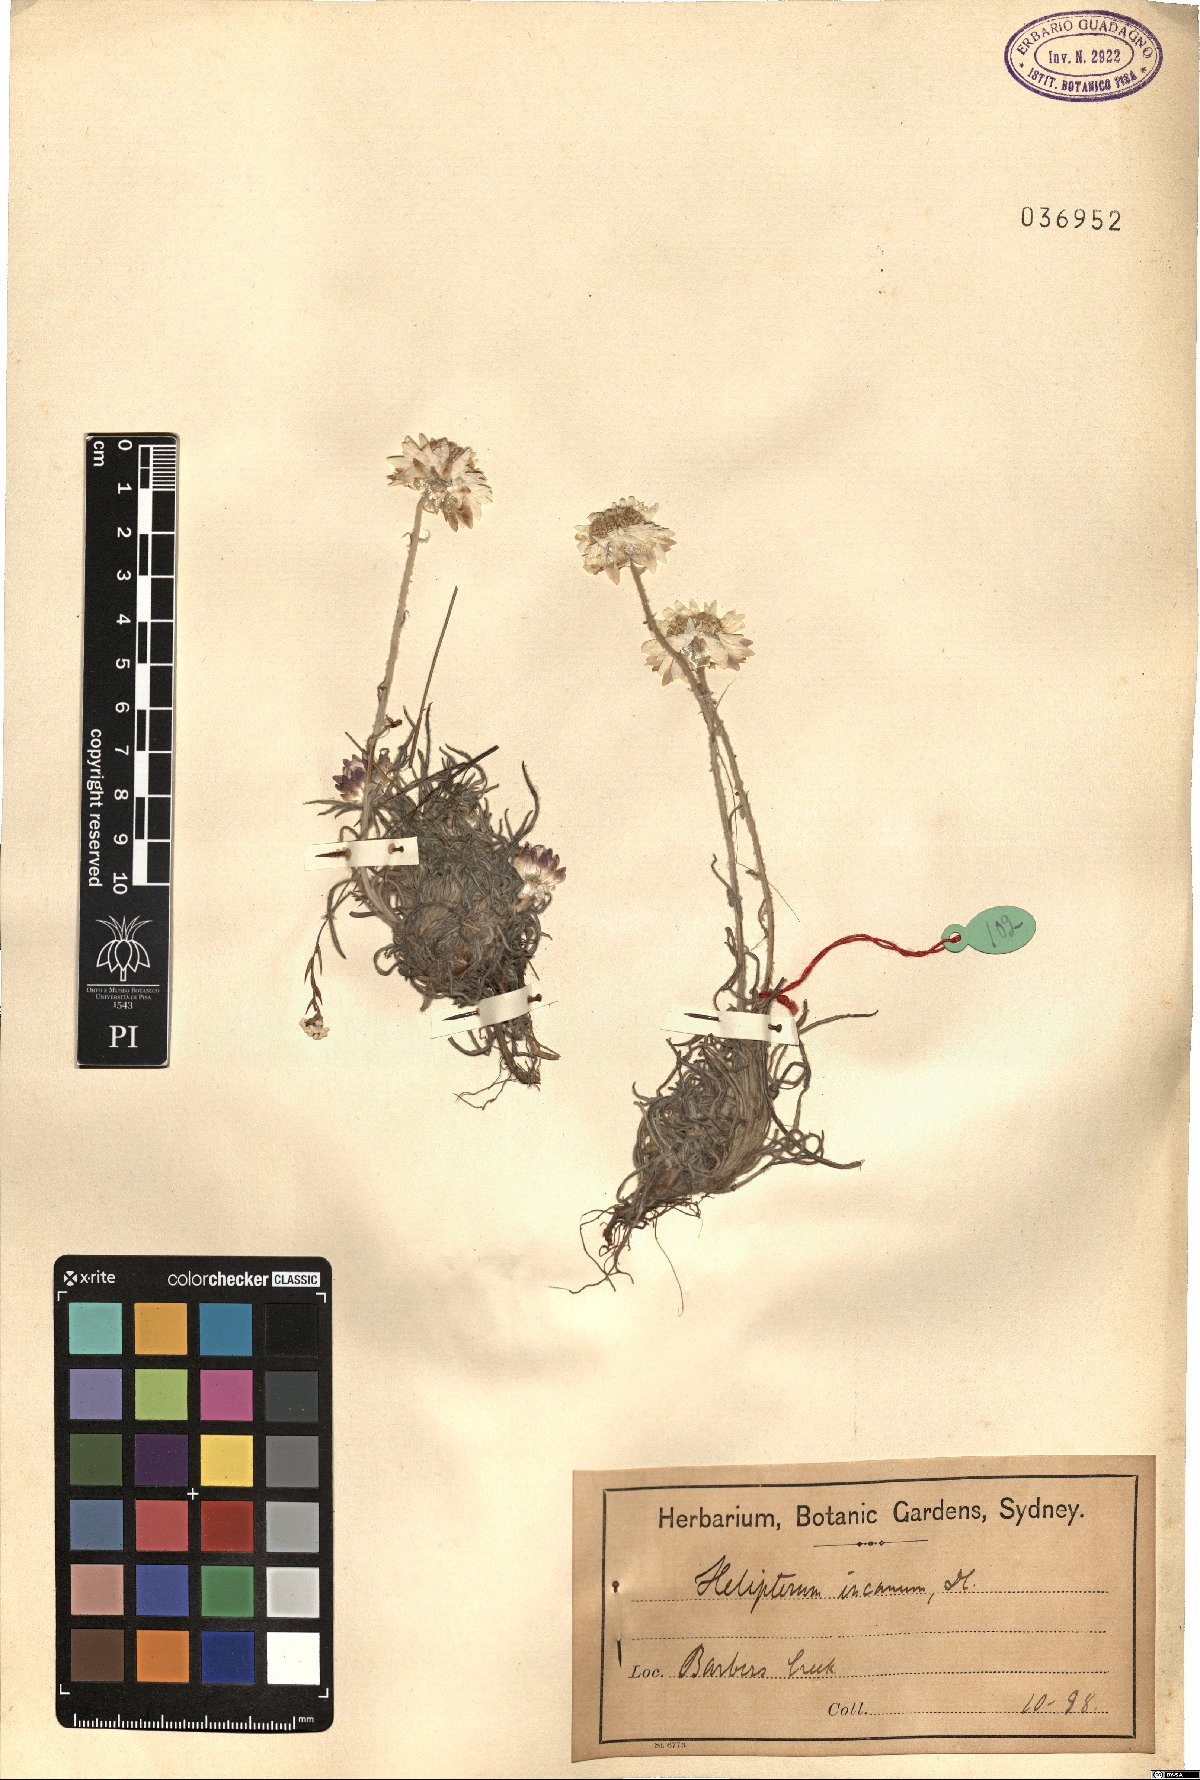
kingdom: Plantae
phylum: Tracheophyta
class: Magnoliopsida
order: Asterales
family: Asteraceae
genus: Leucochrysum
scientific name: Leucochrysum albicans
